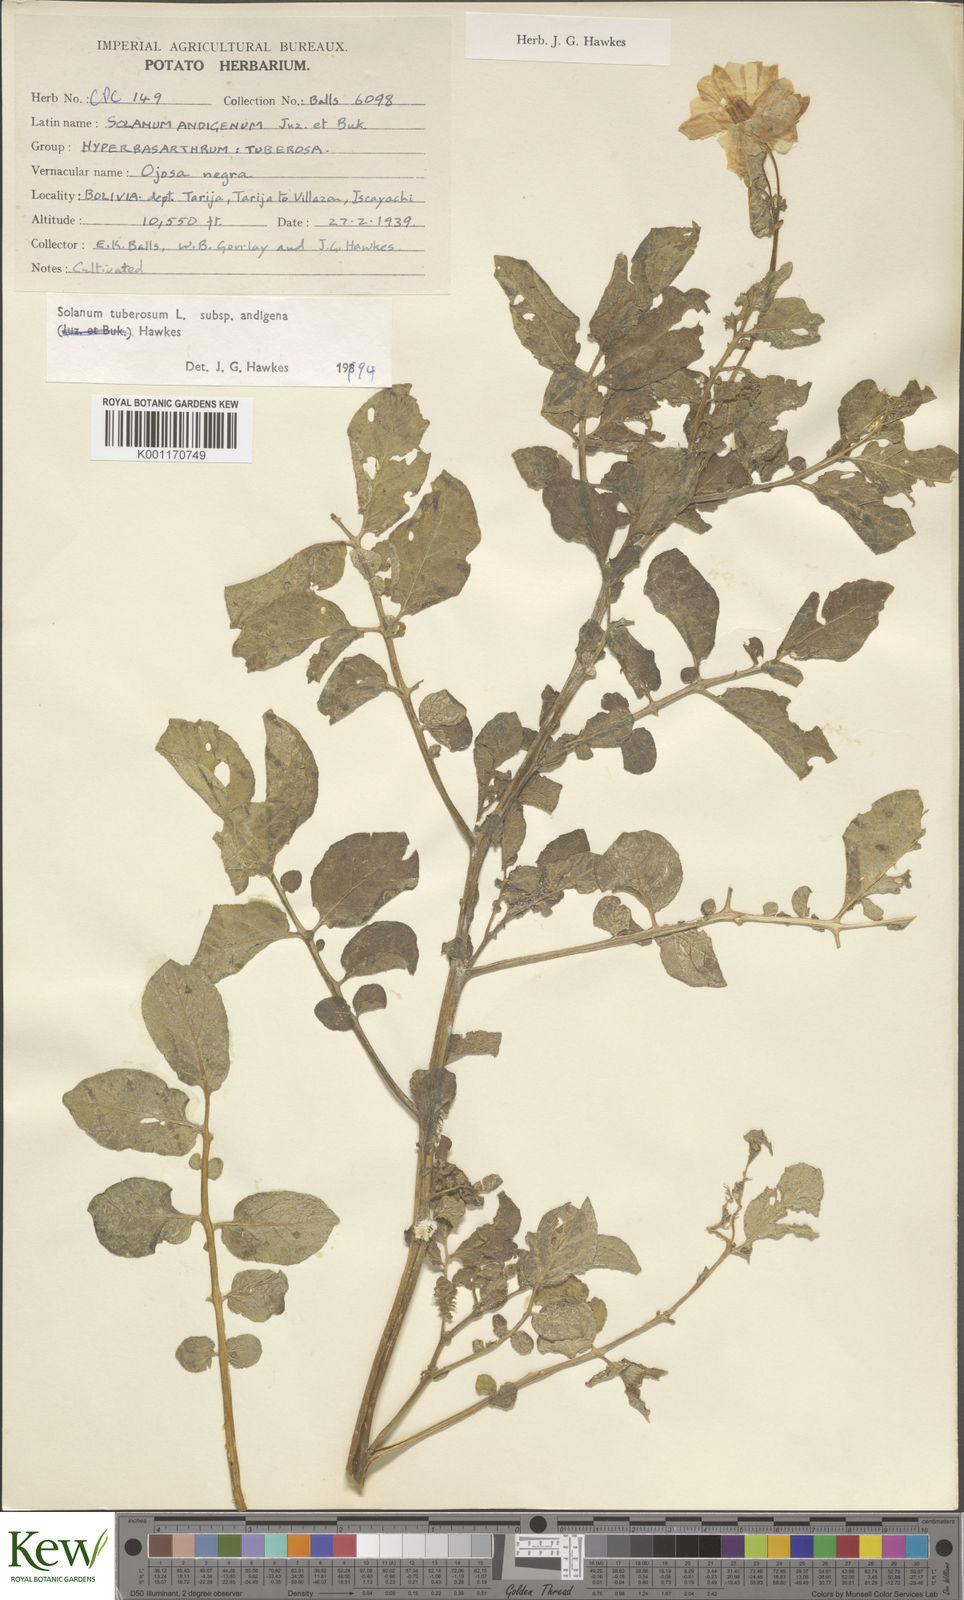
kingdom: Plantae
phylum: Tracheophyta
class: Magnoliopsida
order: Solanales
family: Solanaceae
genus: Solanum
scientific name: Solanum tuberosum
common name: Potato
